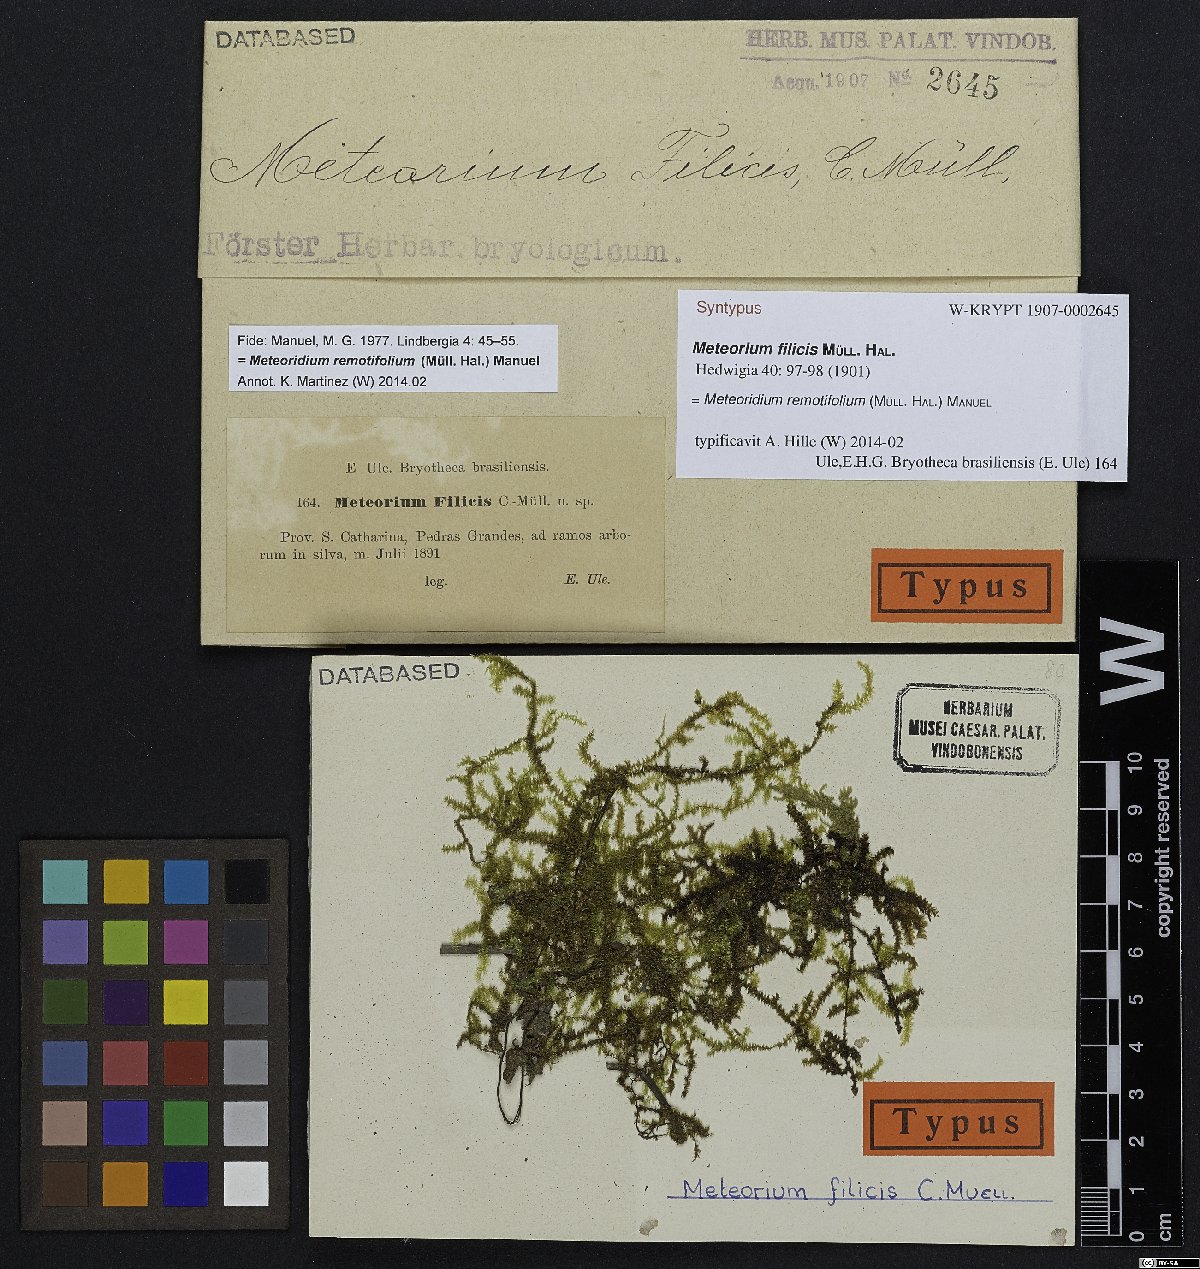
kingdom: Plantae
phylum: Bryophyta
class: Bryopsida
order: Hypnales
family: Brachytheciaceae
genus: Meteoridium
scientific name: Meteoridium remotifolium
